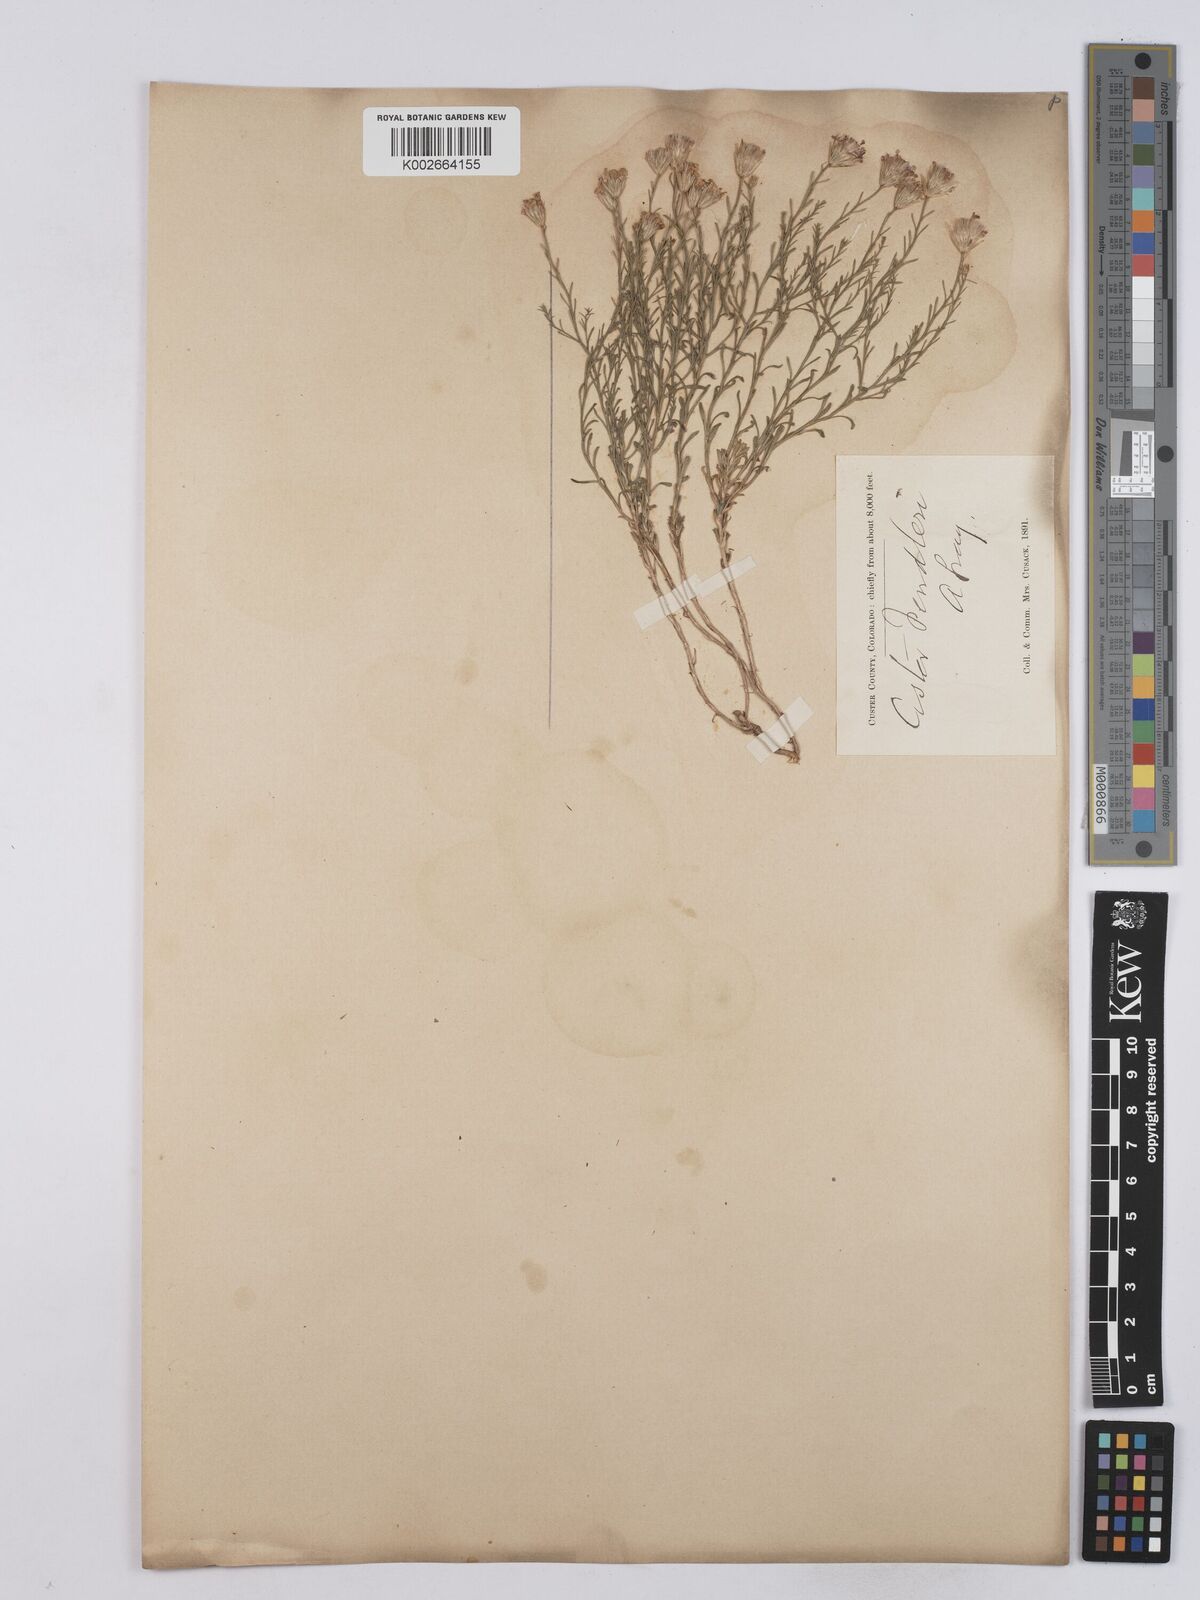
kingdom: Plantae
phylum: Tracheophyta
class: Magnoliopsida
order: Asterales
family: Asteraceae
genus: Chaetopappa
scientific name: Chaetopappa ericoides
